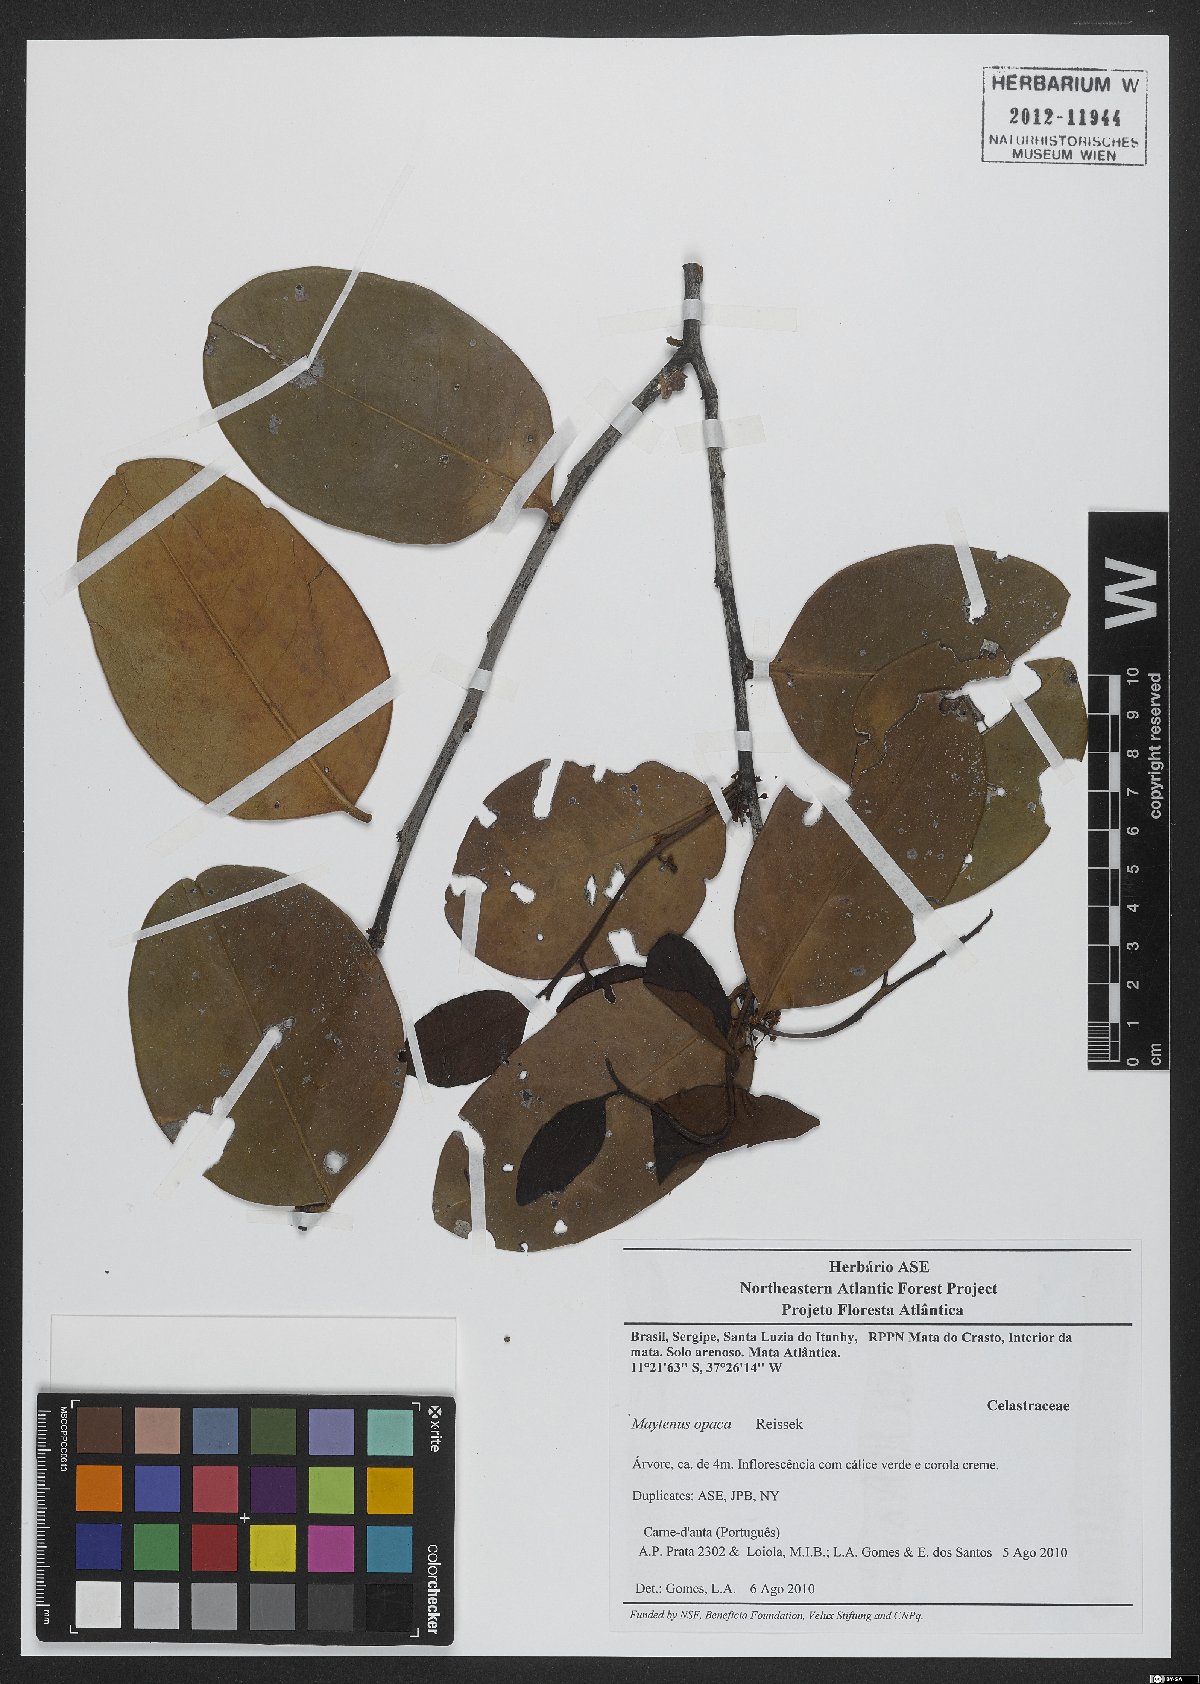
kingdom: Plantae
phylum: Tracheophyta
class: Magnoliopsida
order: Celastrales
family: Celastraceae
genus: Monteverdia
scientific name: Monteverdia opaca
